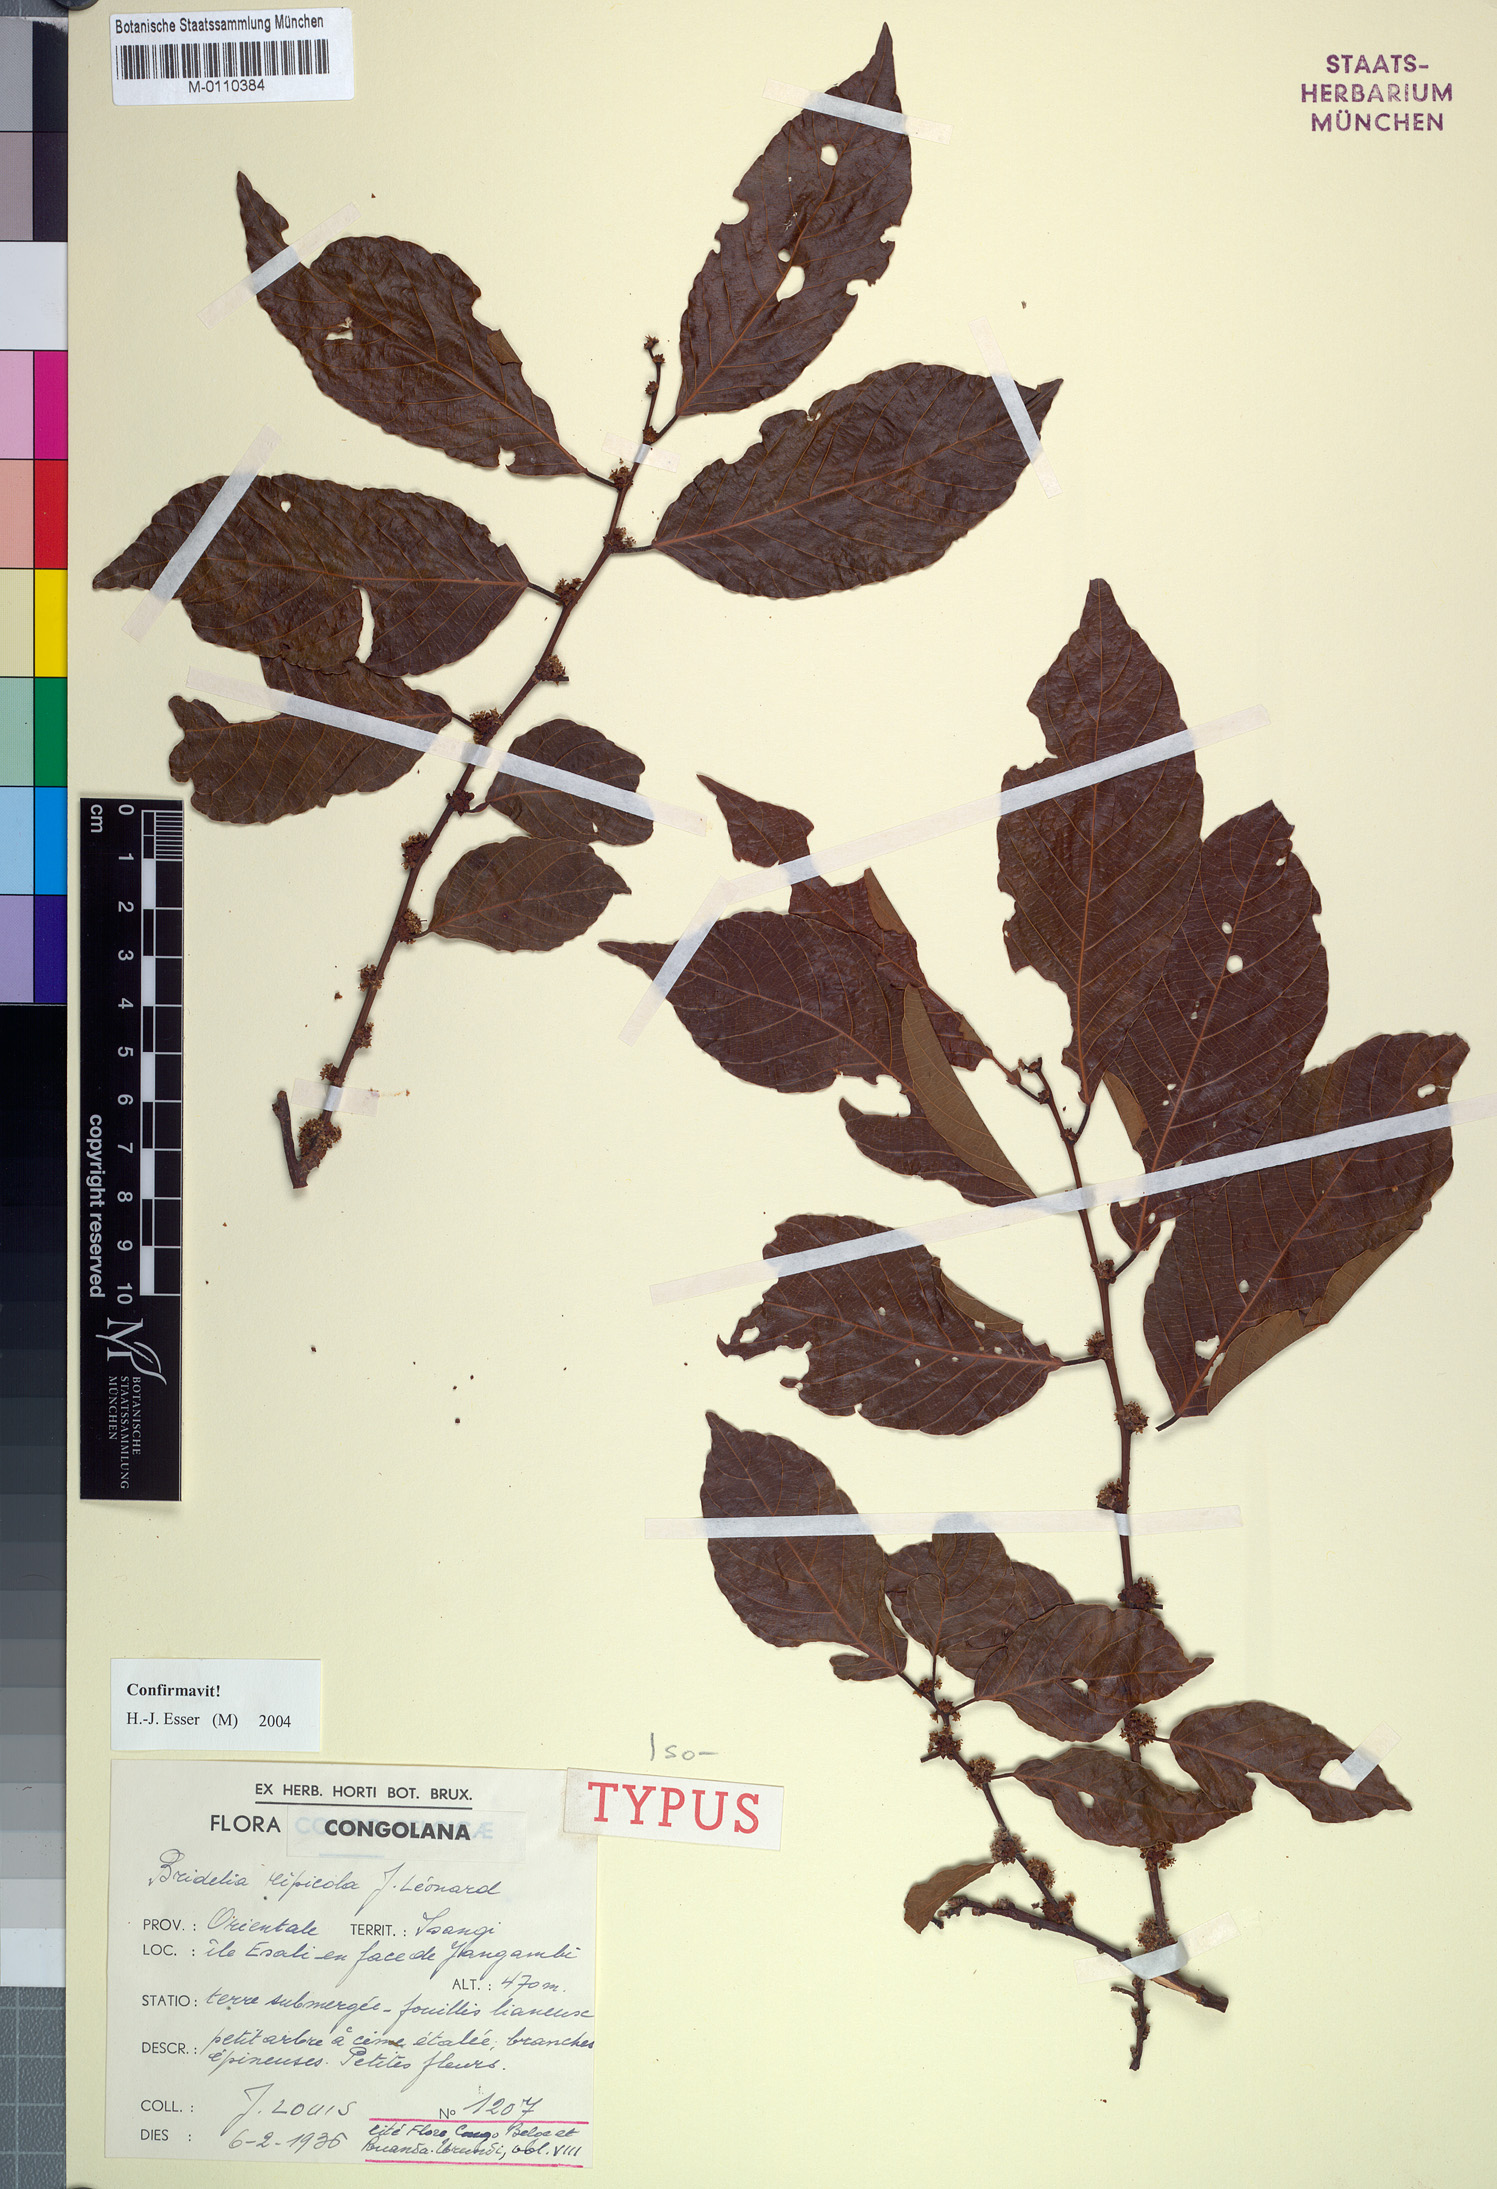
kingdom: Plantae
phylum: Tracheophyta
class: Magnoliopsida
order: Malpighiales
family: Phyllanthaceae
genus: Bridelia
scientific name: Bridelia ripicola
